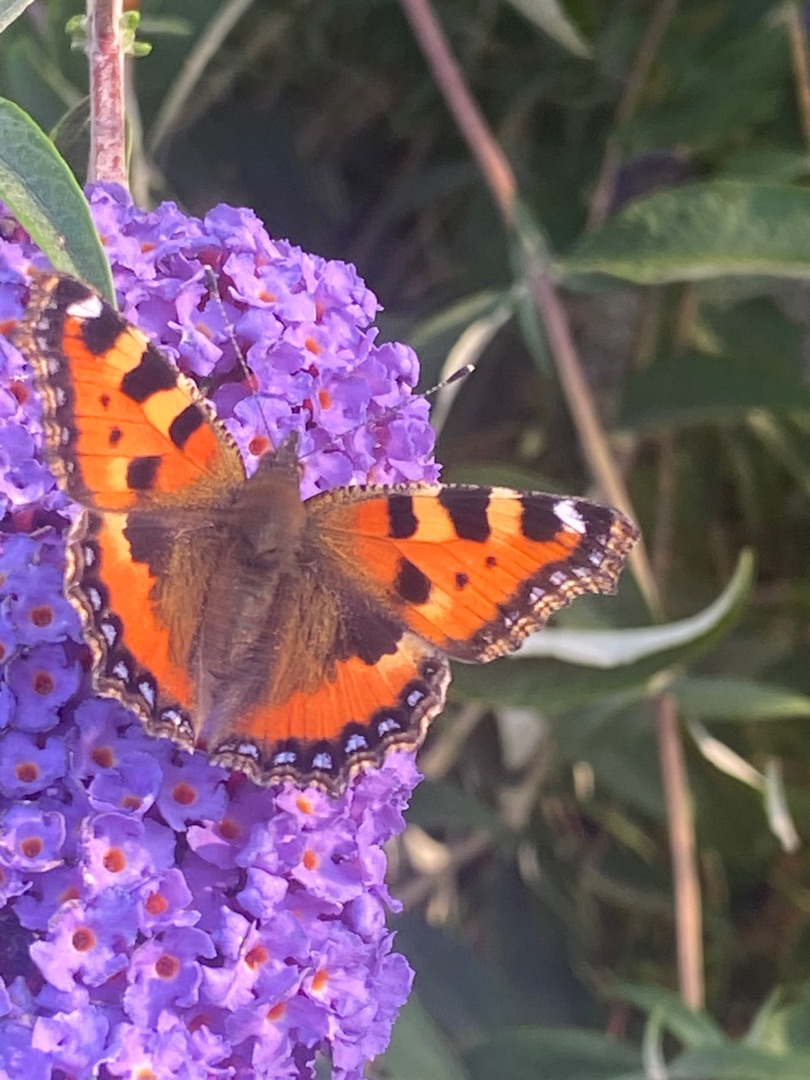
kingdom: Animalia
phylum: Arthropoda
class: Insecta
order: Lepidoptera
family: Nymphalidae
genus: Aglais
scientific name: Aglais urticae
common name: Nældens takvinge
